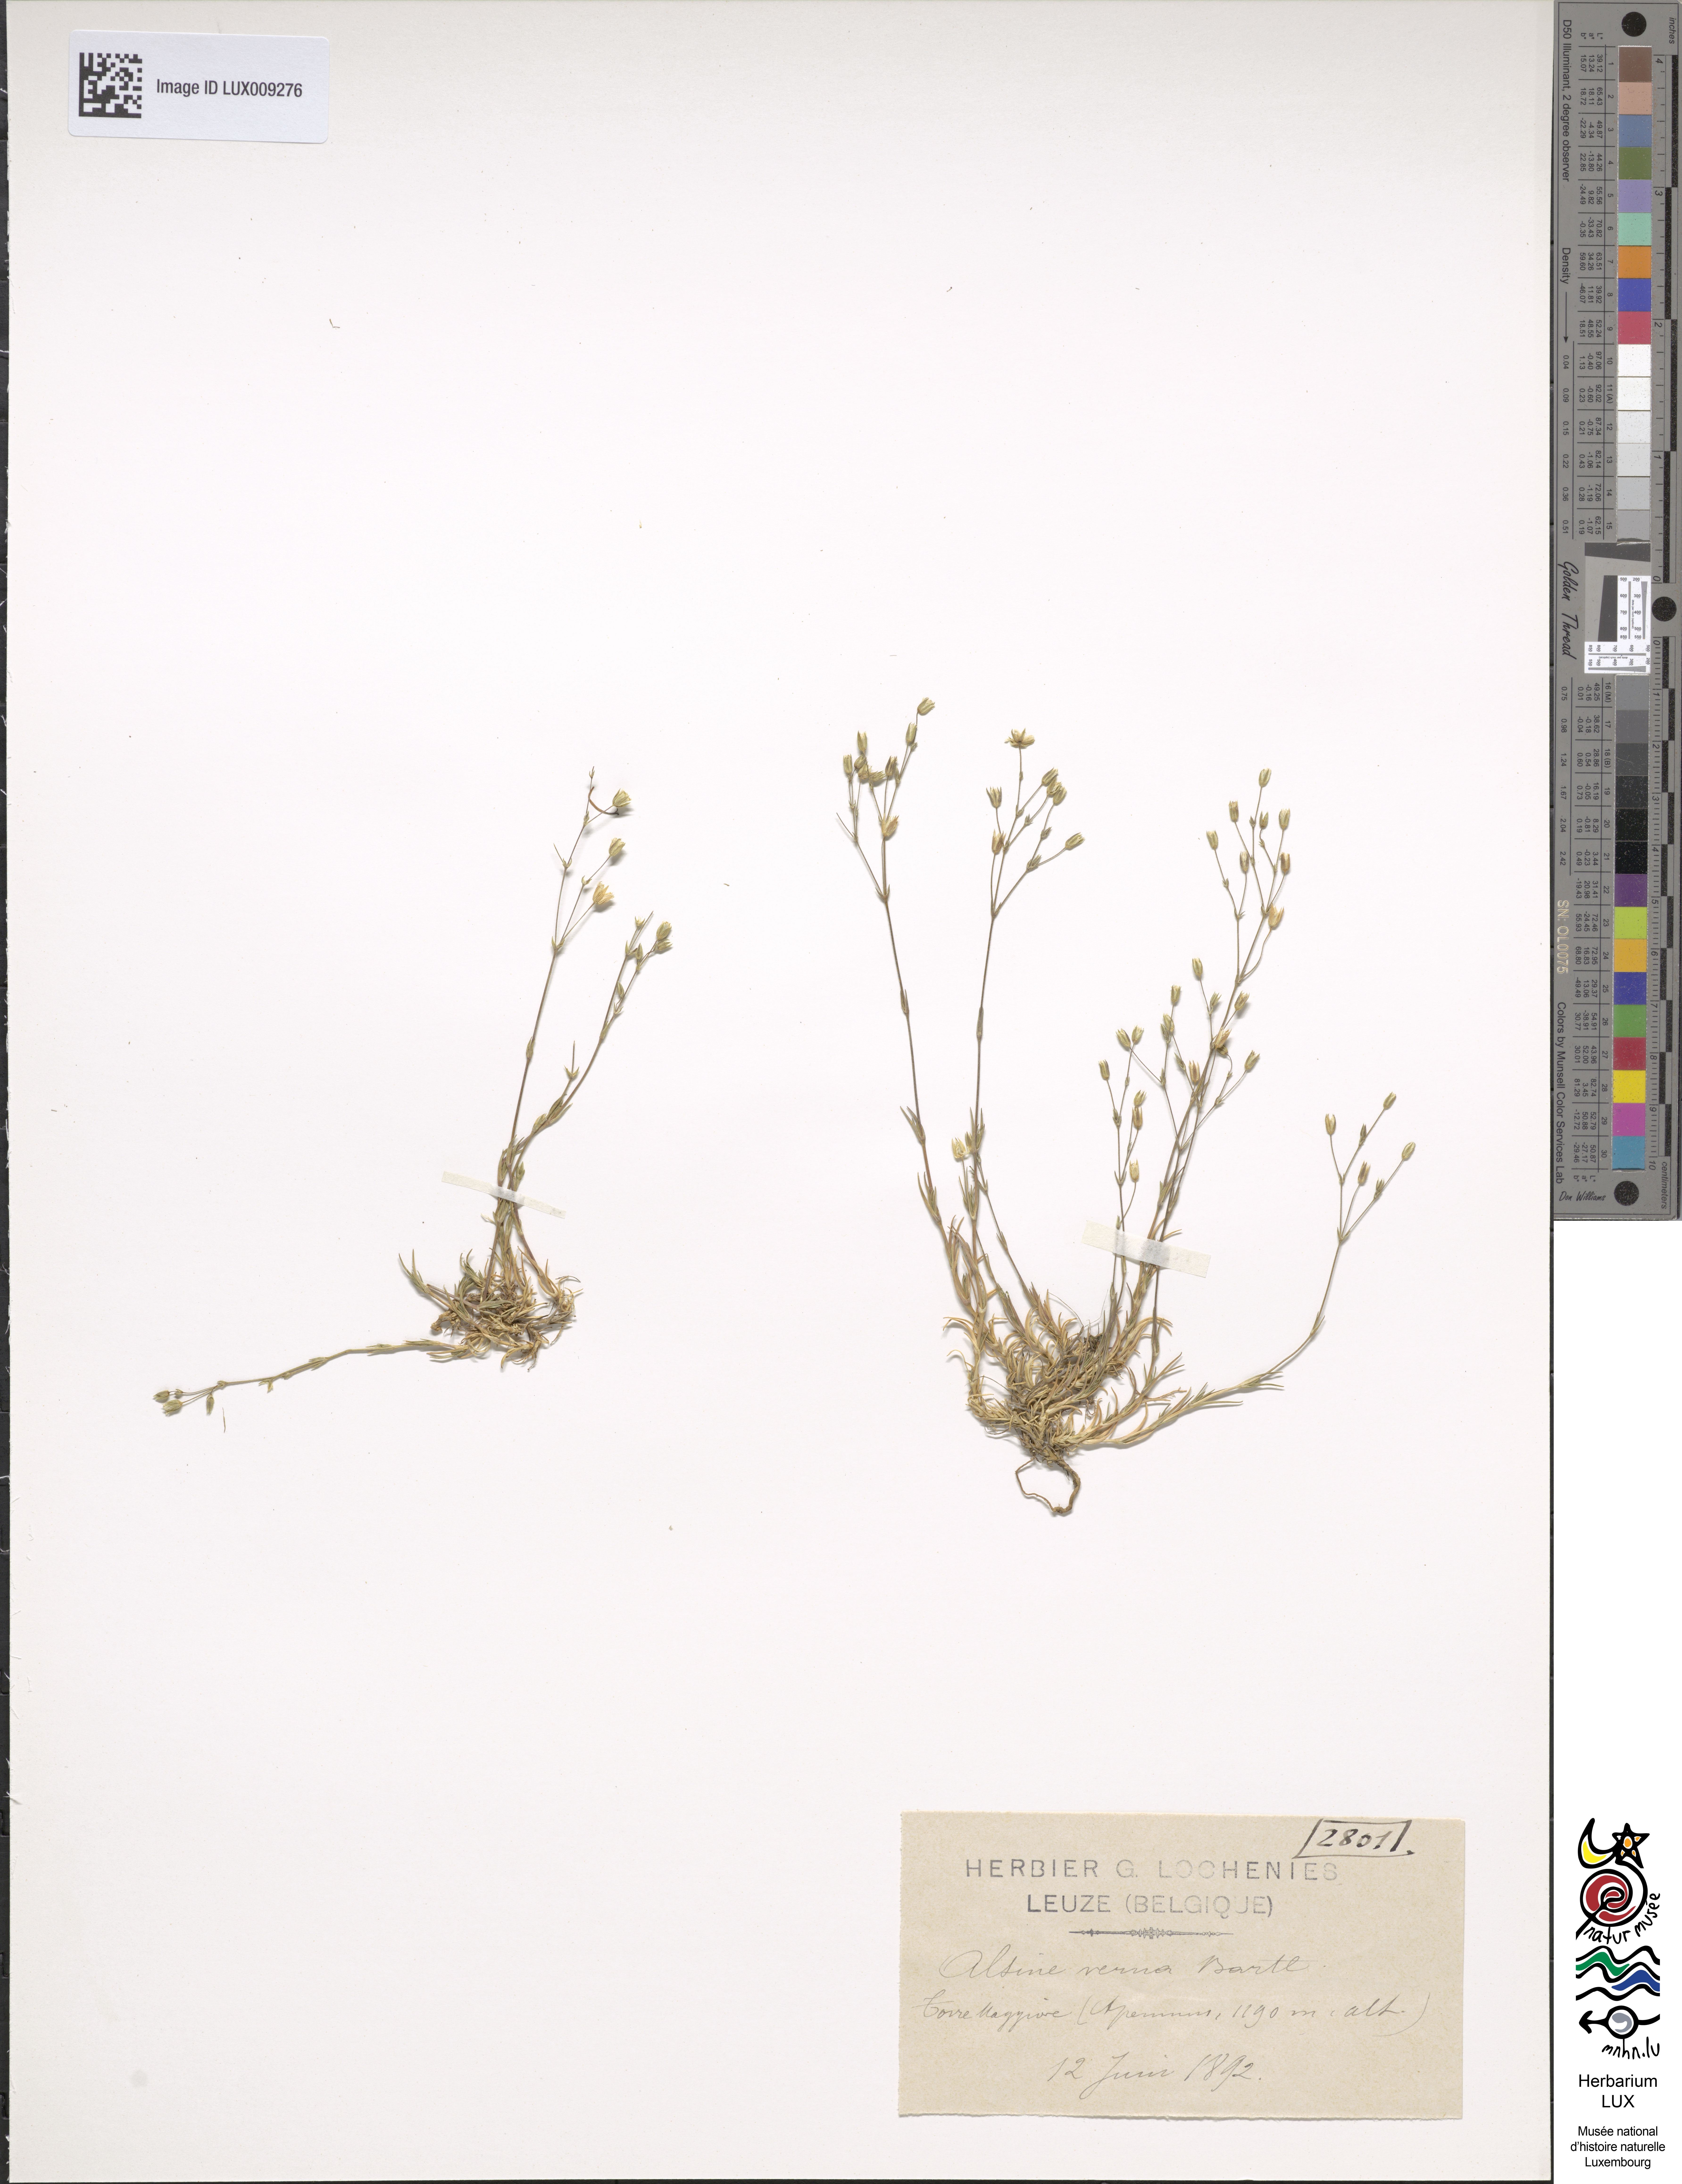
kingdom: Plantae
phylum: Tracheophyta
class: Magnoliopsida
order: Caryophyllales
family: Caryophyllaceae
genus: Sabulina
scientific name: Sabulina verna
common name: Spring sandwort
